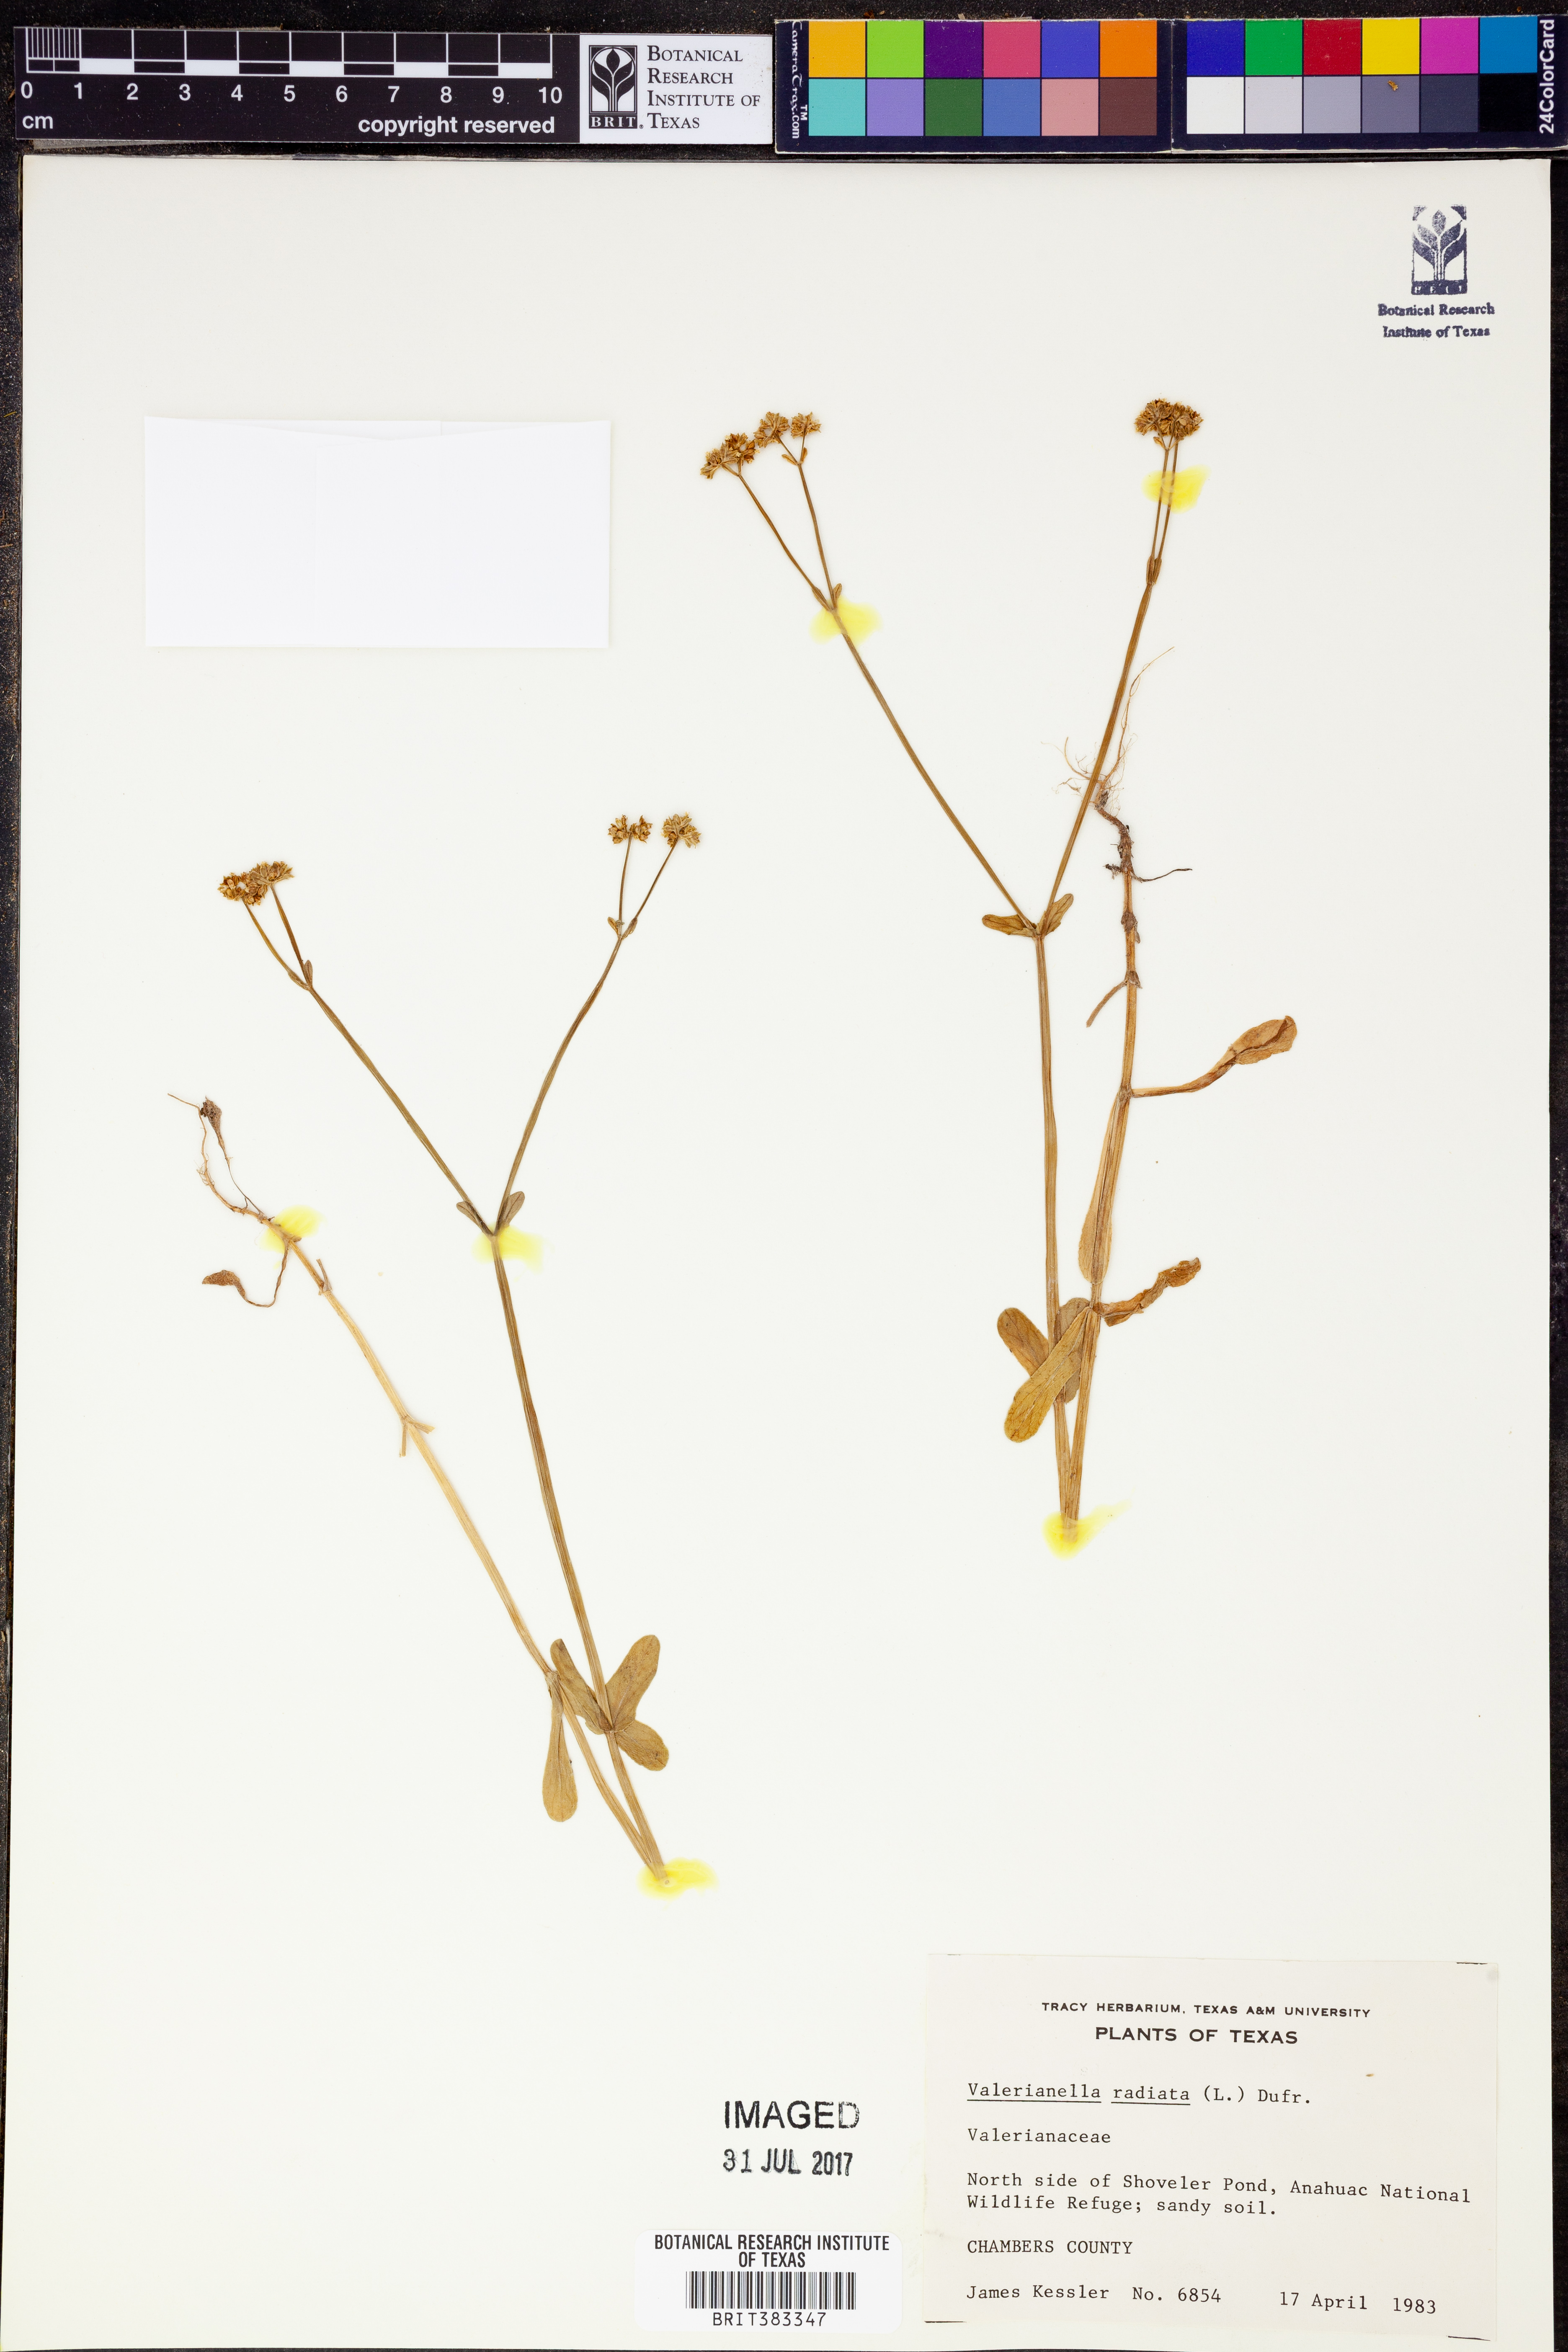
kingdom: Plantae
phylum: Tracheophyta
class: Magnoliopsida
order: Dipsacales
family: Caprifoliaceae
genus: Valerianella
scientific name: Valerianella radiata
